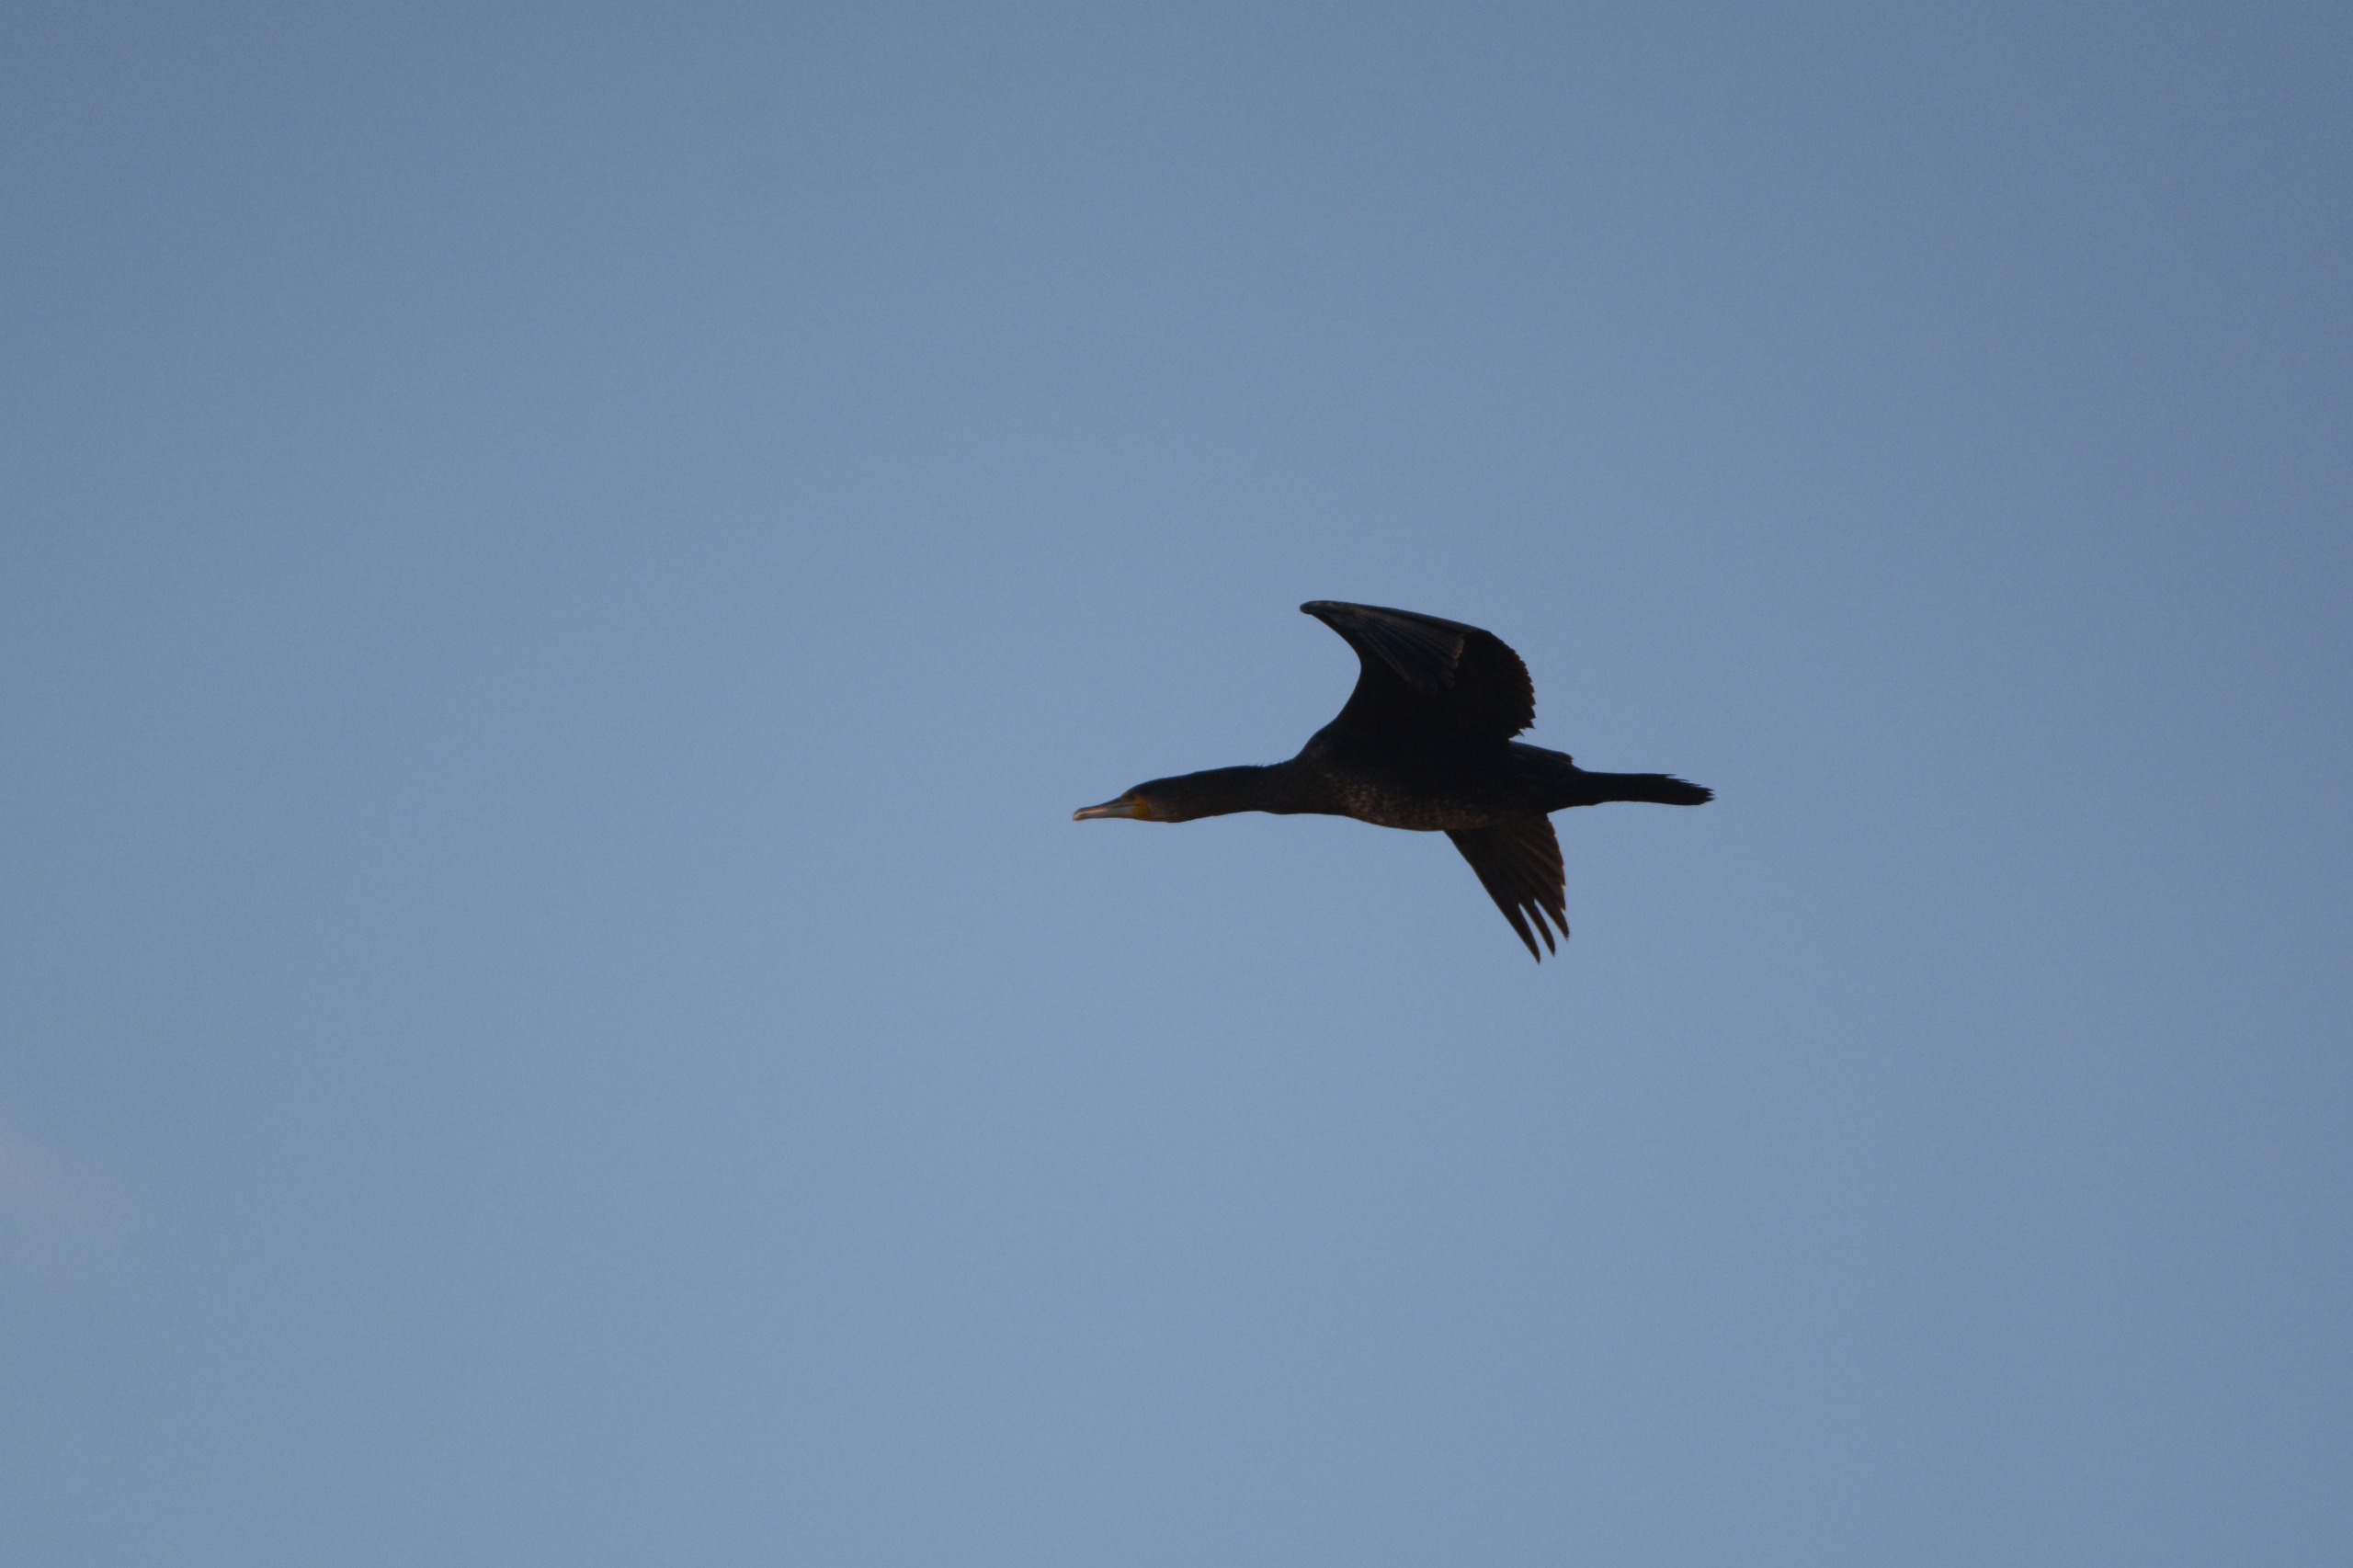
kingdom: Animalia
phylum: Chordata
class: Aves
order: Suliformes
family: Phalacrocoracidae
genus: Phalacrocorax
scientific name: Phalacrocorax carbo
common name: Skarv
